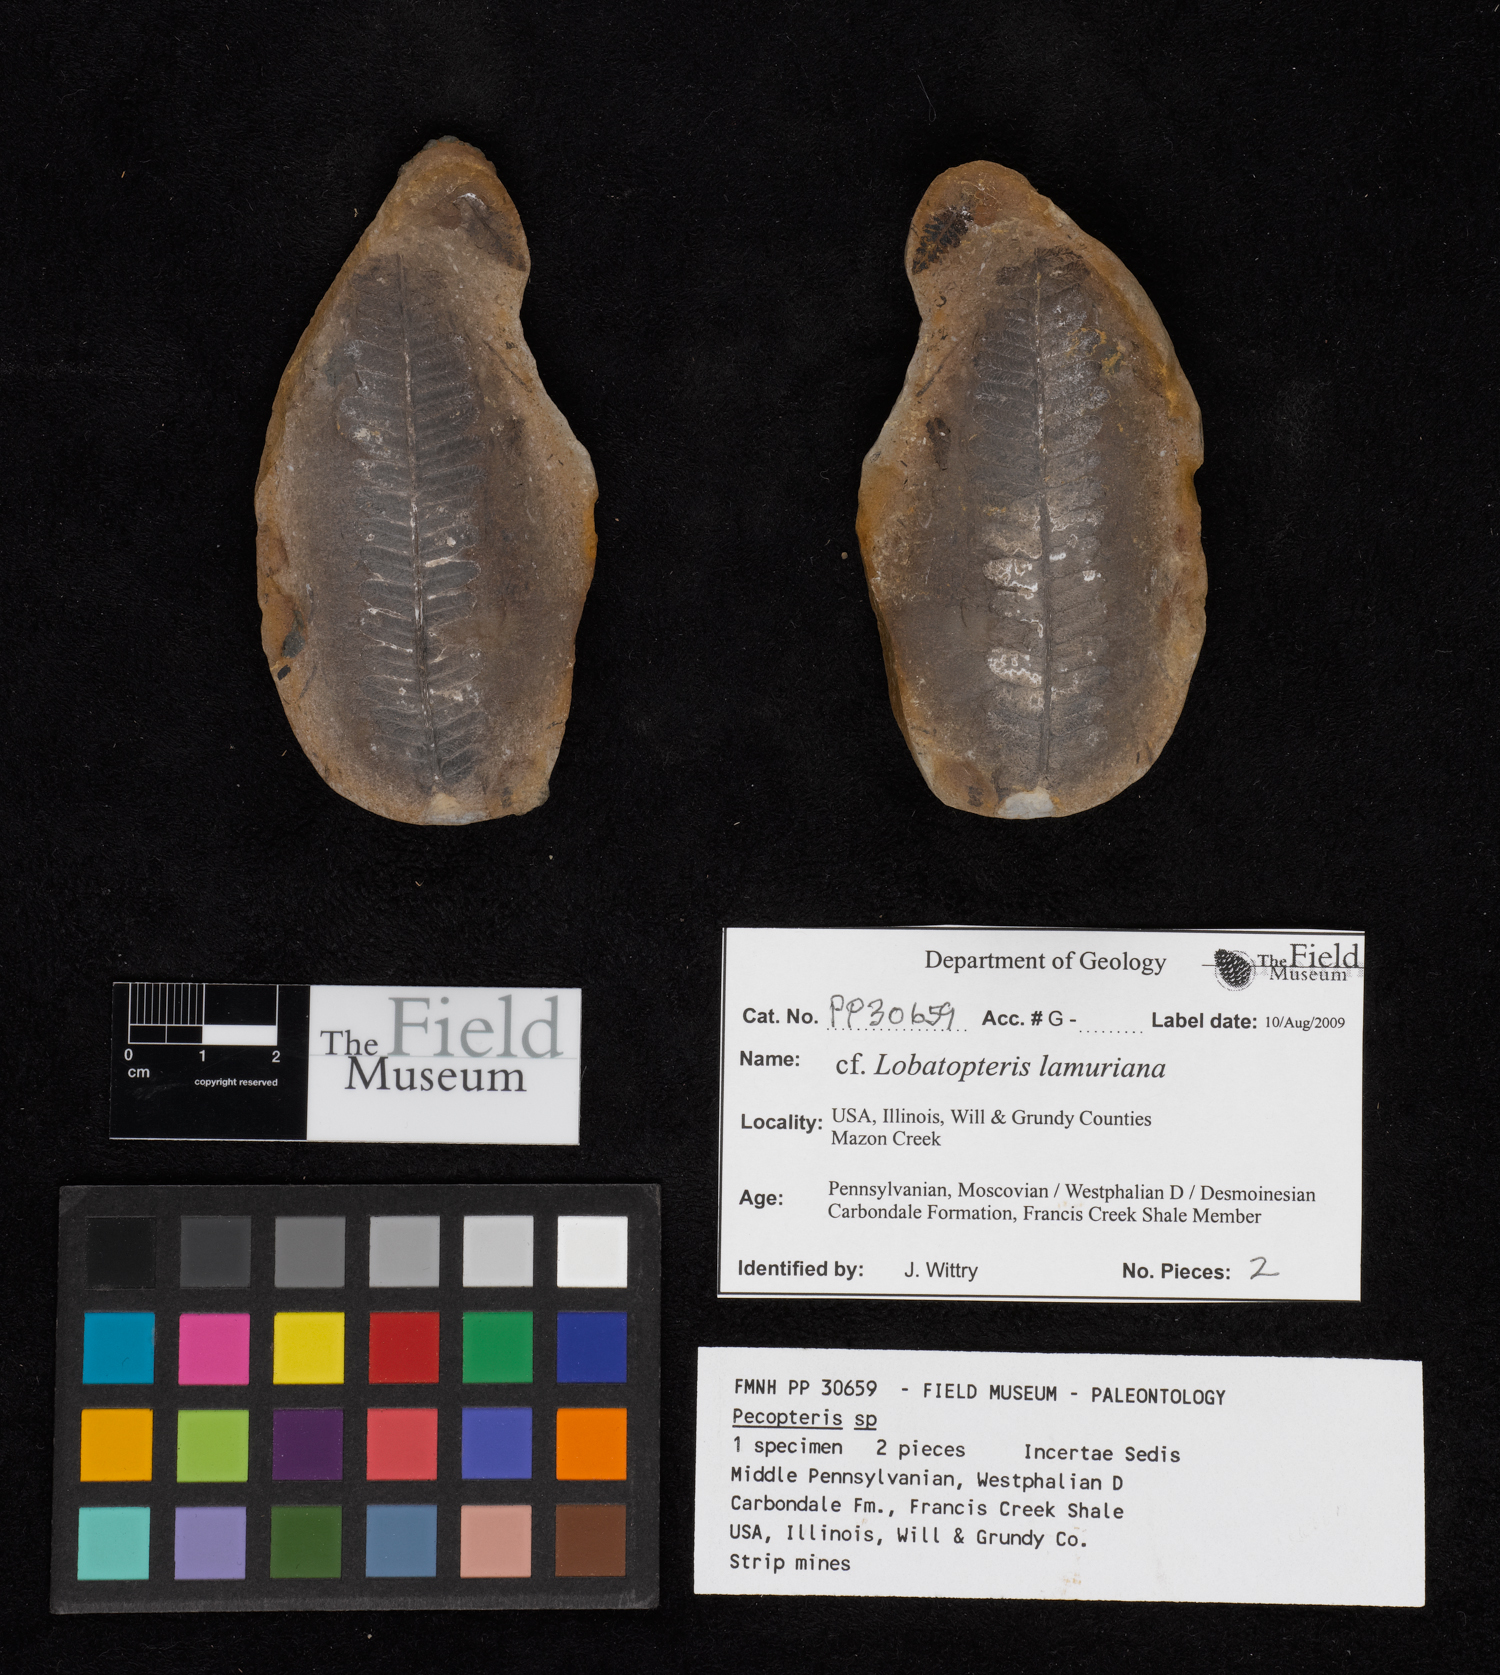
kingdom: Plantae
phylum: Tracheophyta
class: Polypodiopsida
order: Marattiales
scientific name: Marattiales
